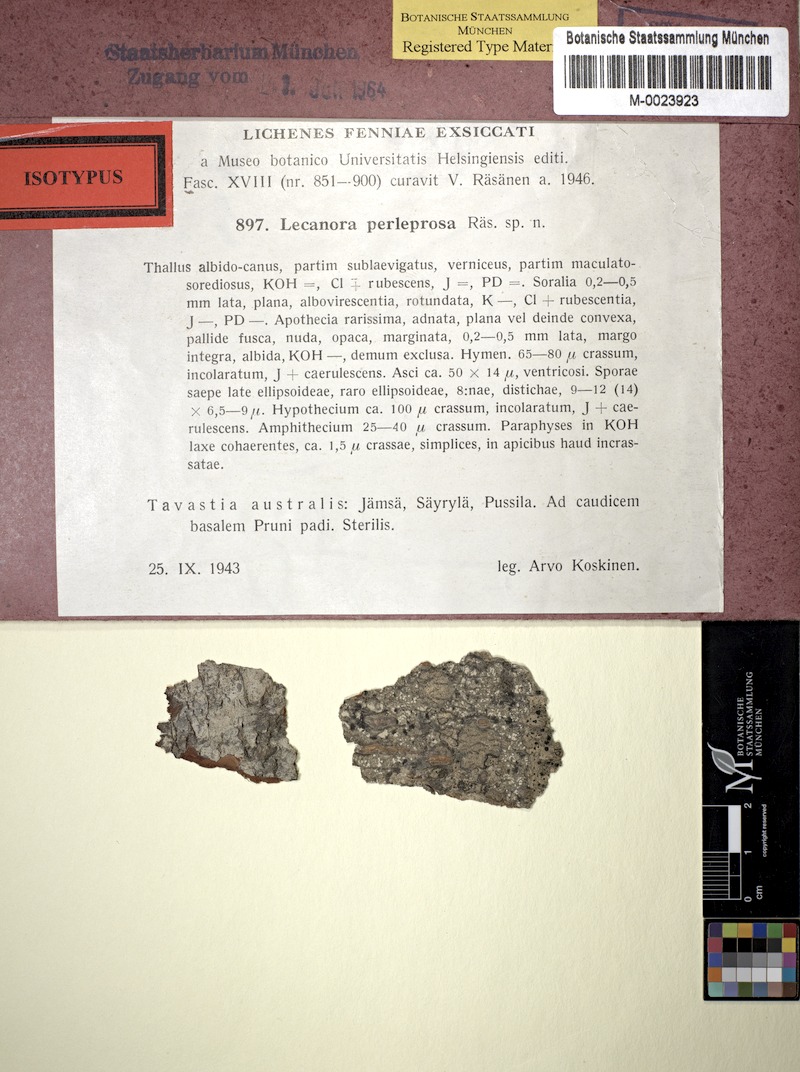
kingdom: Fungi
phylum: Ascomycota
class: Lecanoromycetes
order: Pertusariales
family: Ochrolechiaceae
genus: Ochrolechia
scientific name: Ochrolechia arborea
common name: Tree saucer lichen
